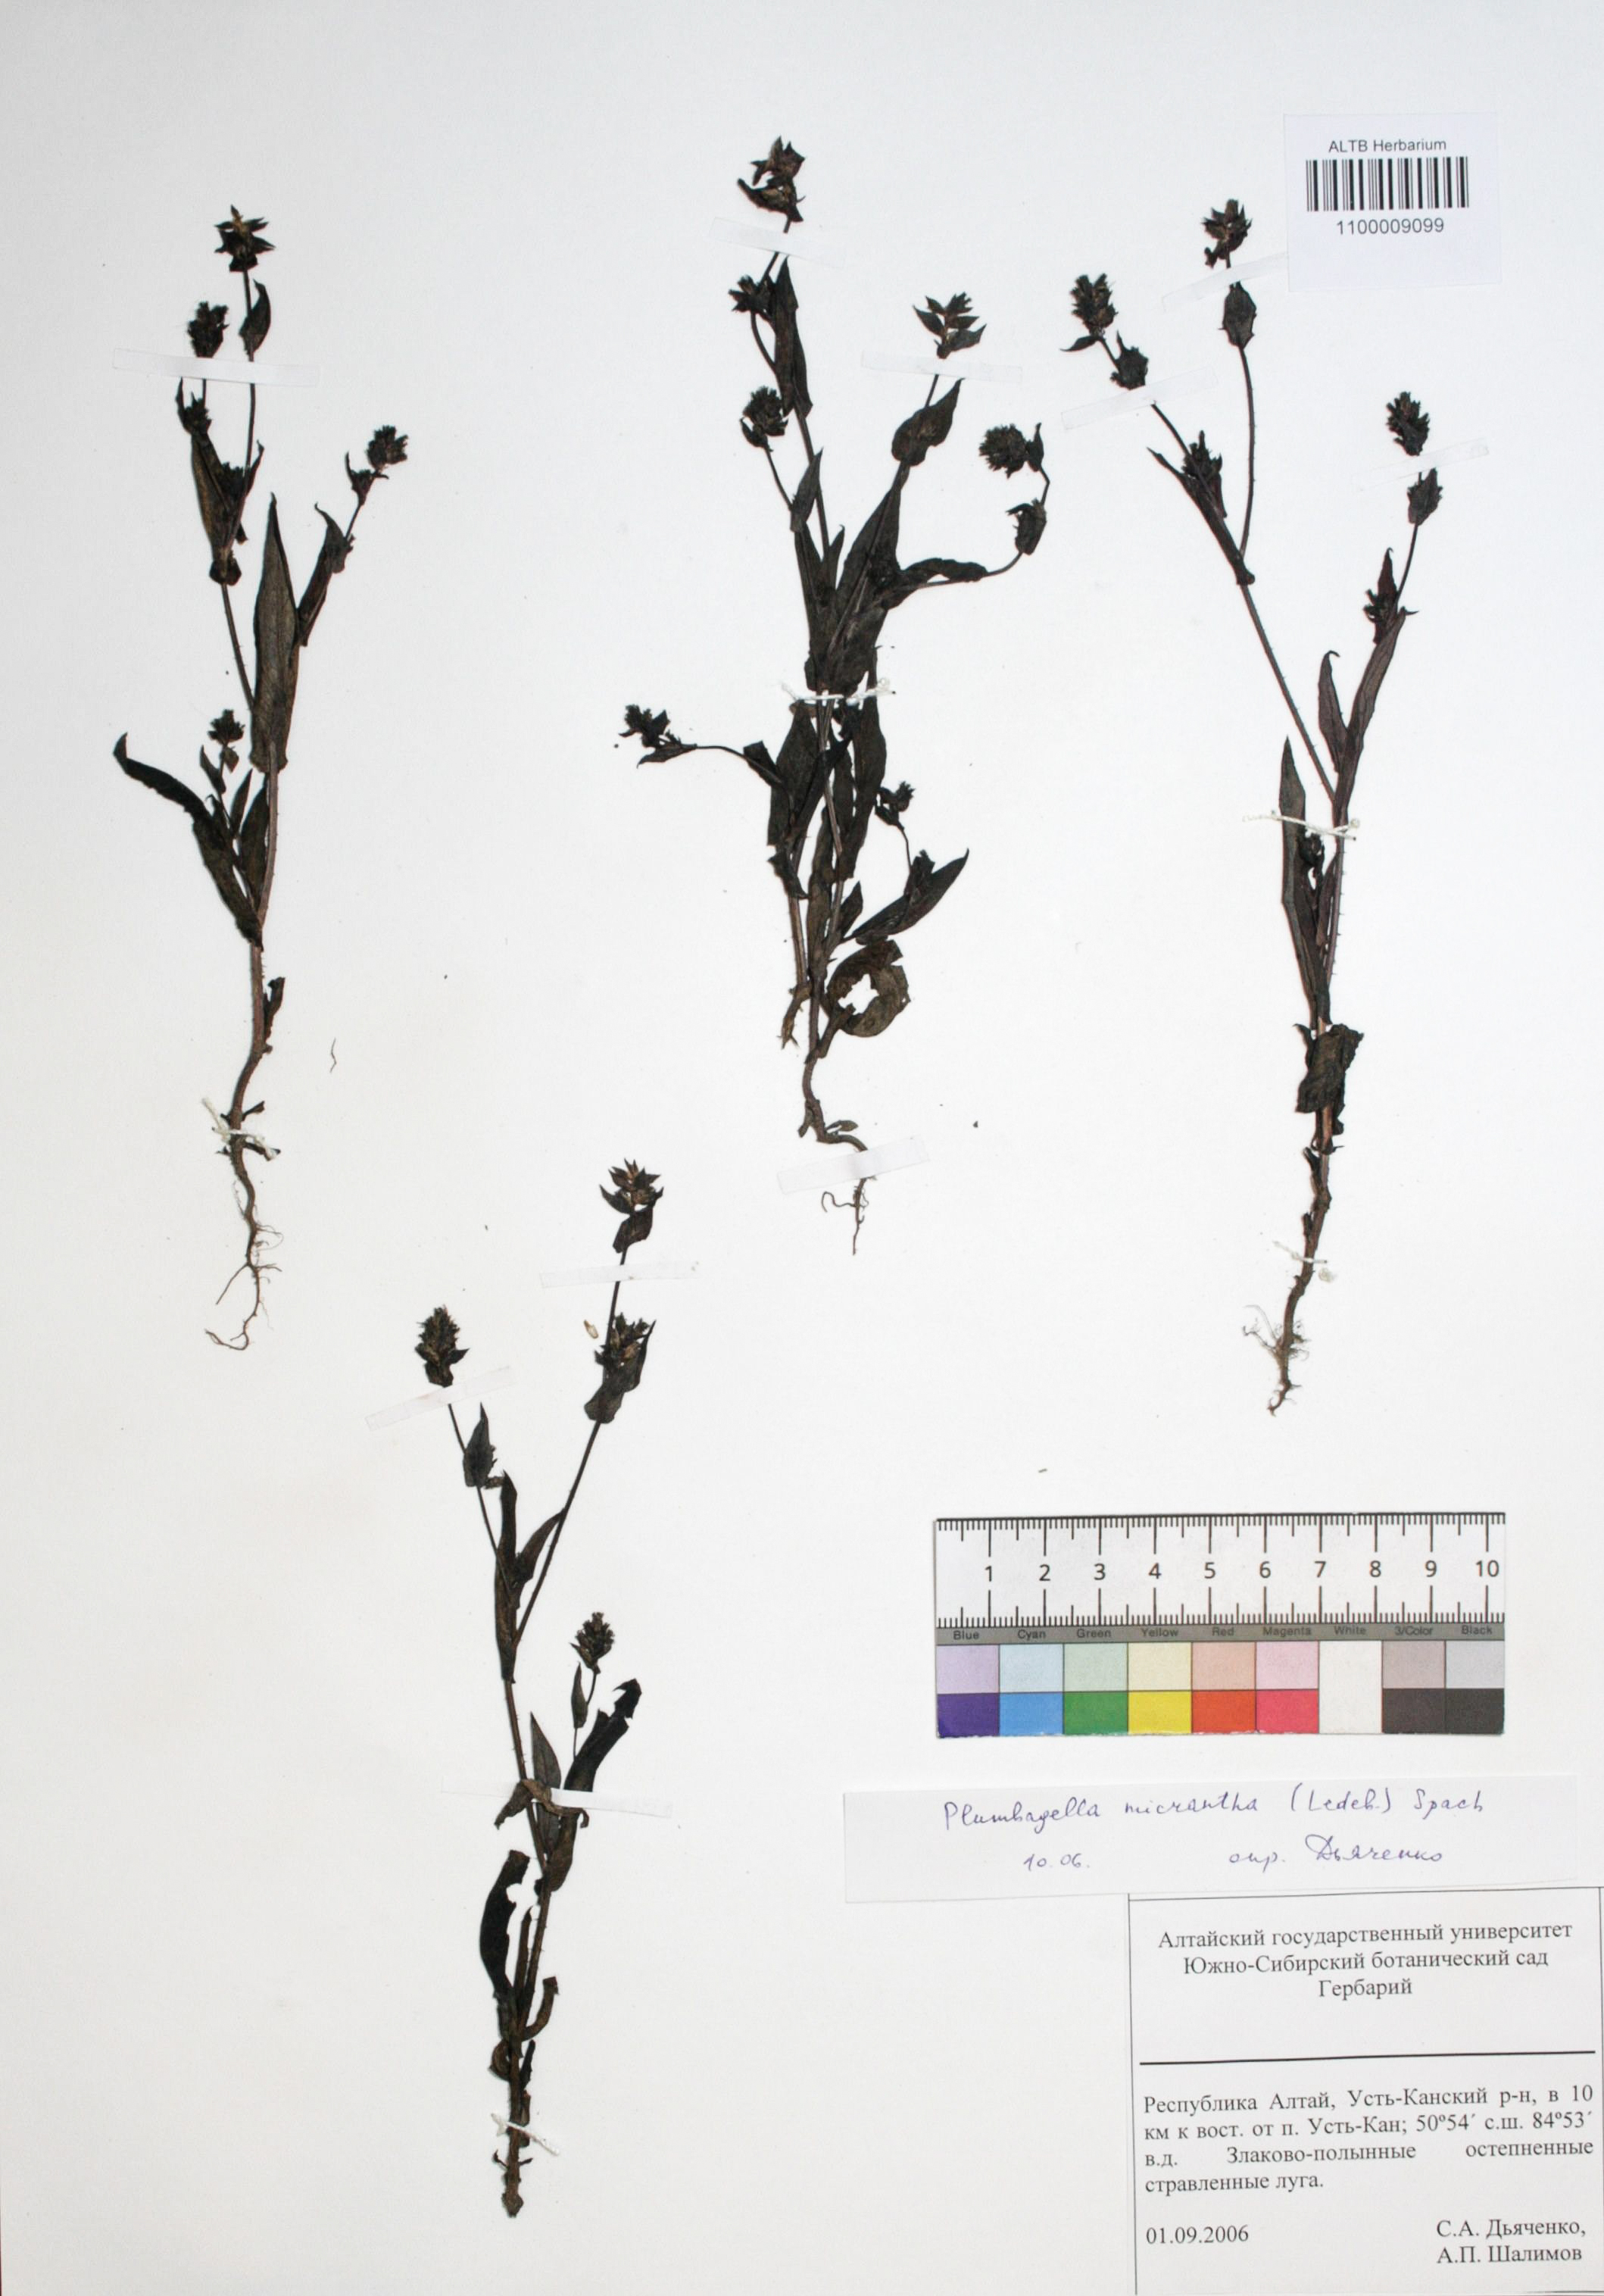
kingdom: Plantae
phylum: Tracheophyta
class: Magnoliopsida
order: Caryophyllales
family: Plumbaginaceae
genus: Plumbagella
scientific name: Plumbagella micrantha
